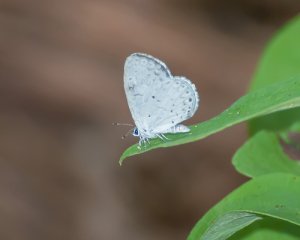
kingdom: Animalia
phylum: Arthropoda
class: Insecta
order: Lepidoptera
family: Lycaenidae
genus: Cyaniris
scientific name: Cyaniris neglecta
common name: Summer Azure
